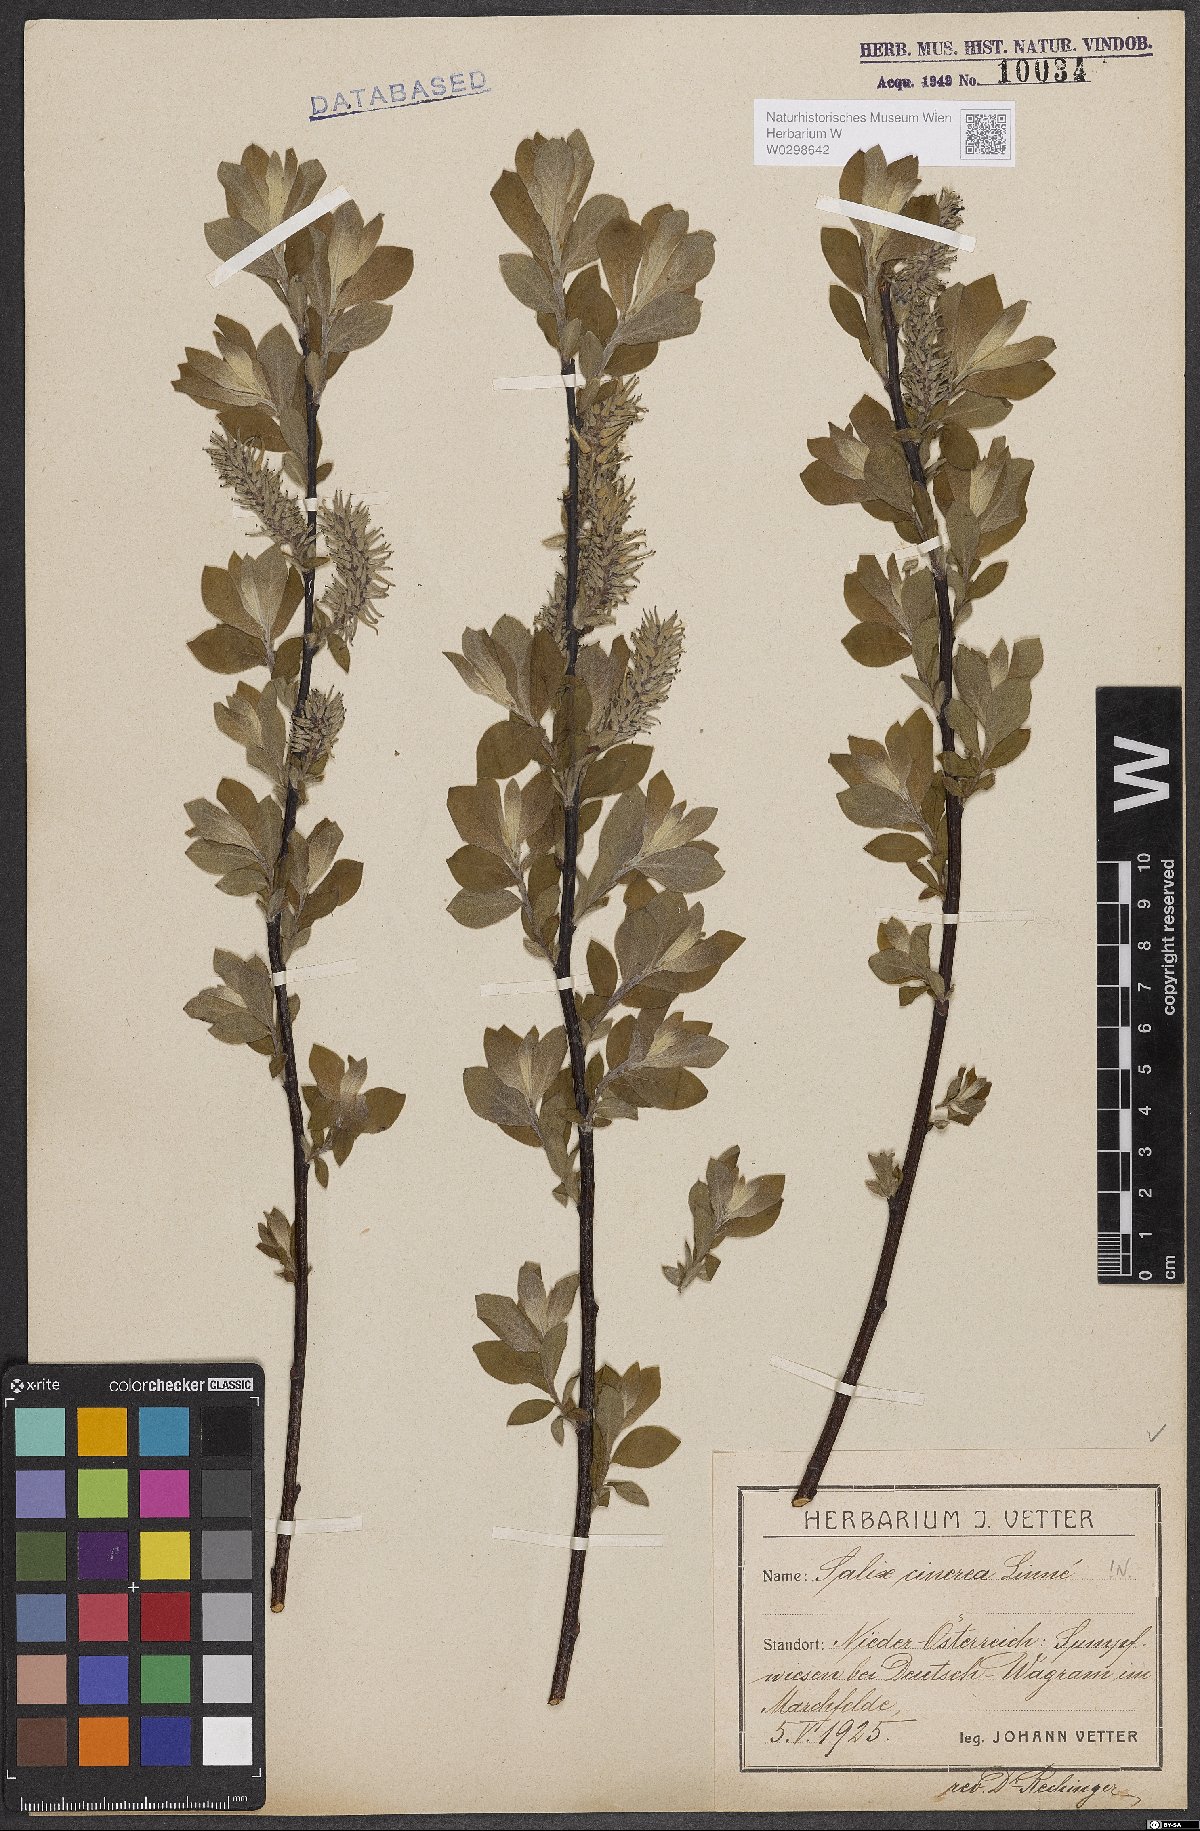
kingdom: Plantae
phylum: Tracheophyta
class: Magnoliopsida
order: Malpighiales
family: Salicaceae
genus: Salix
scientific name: Salix cinerea
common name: Common sallow
